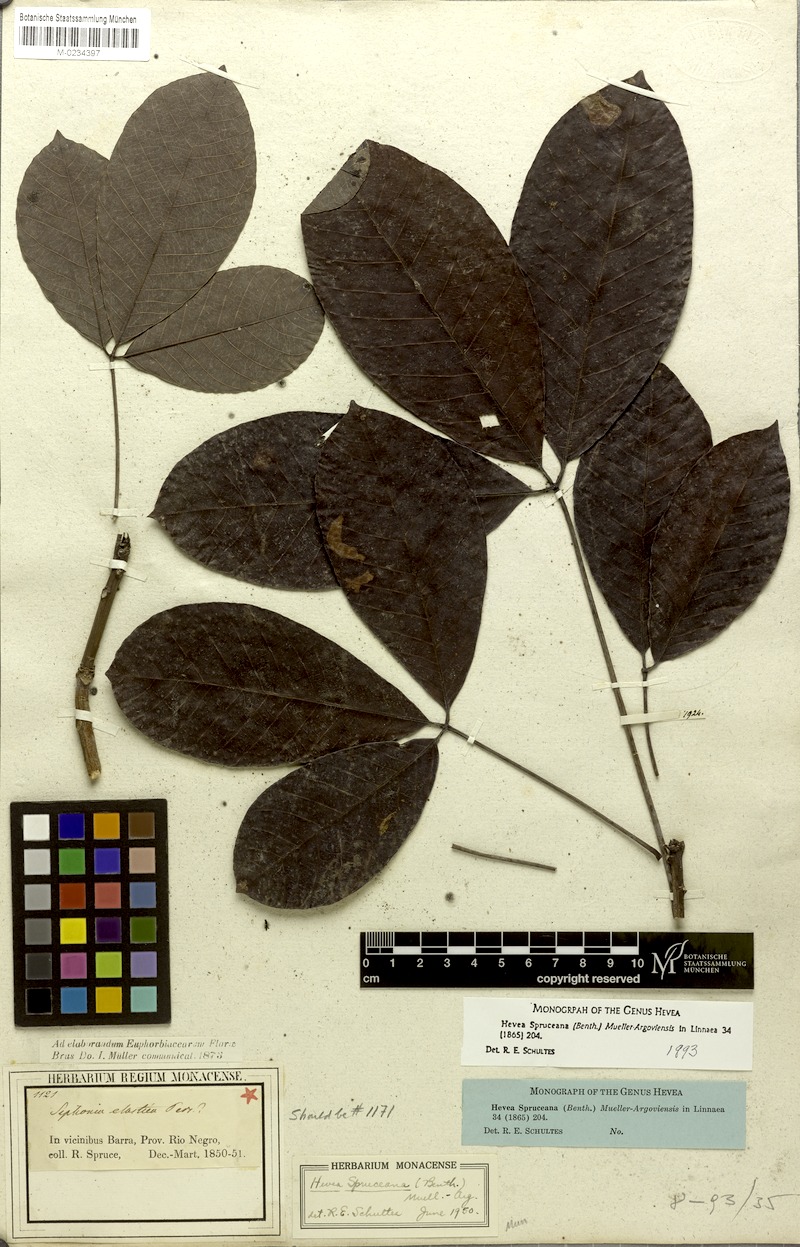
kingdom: Plantae
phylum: Tracheophyta
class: Magnoliopsida
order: Malpighiales
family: Euphorbiaceae
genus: Hevea
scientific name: Hevea spruceana
